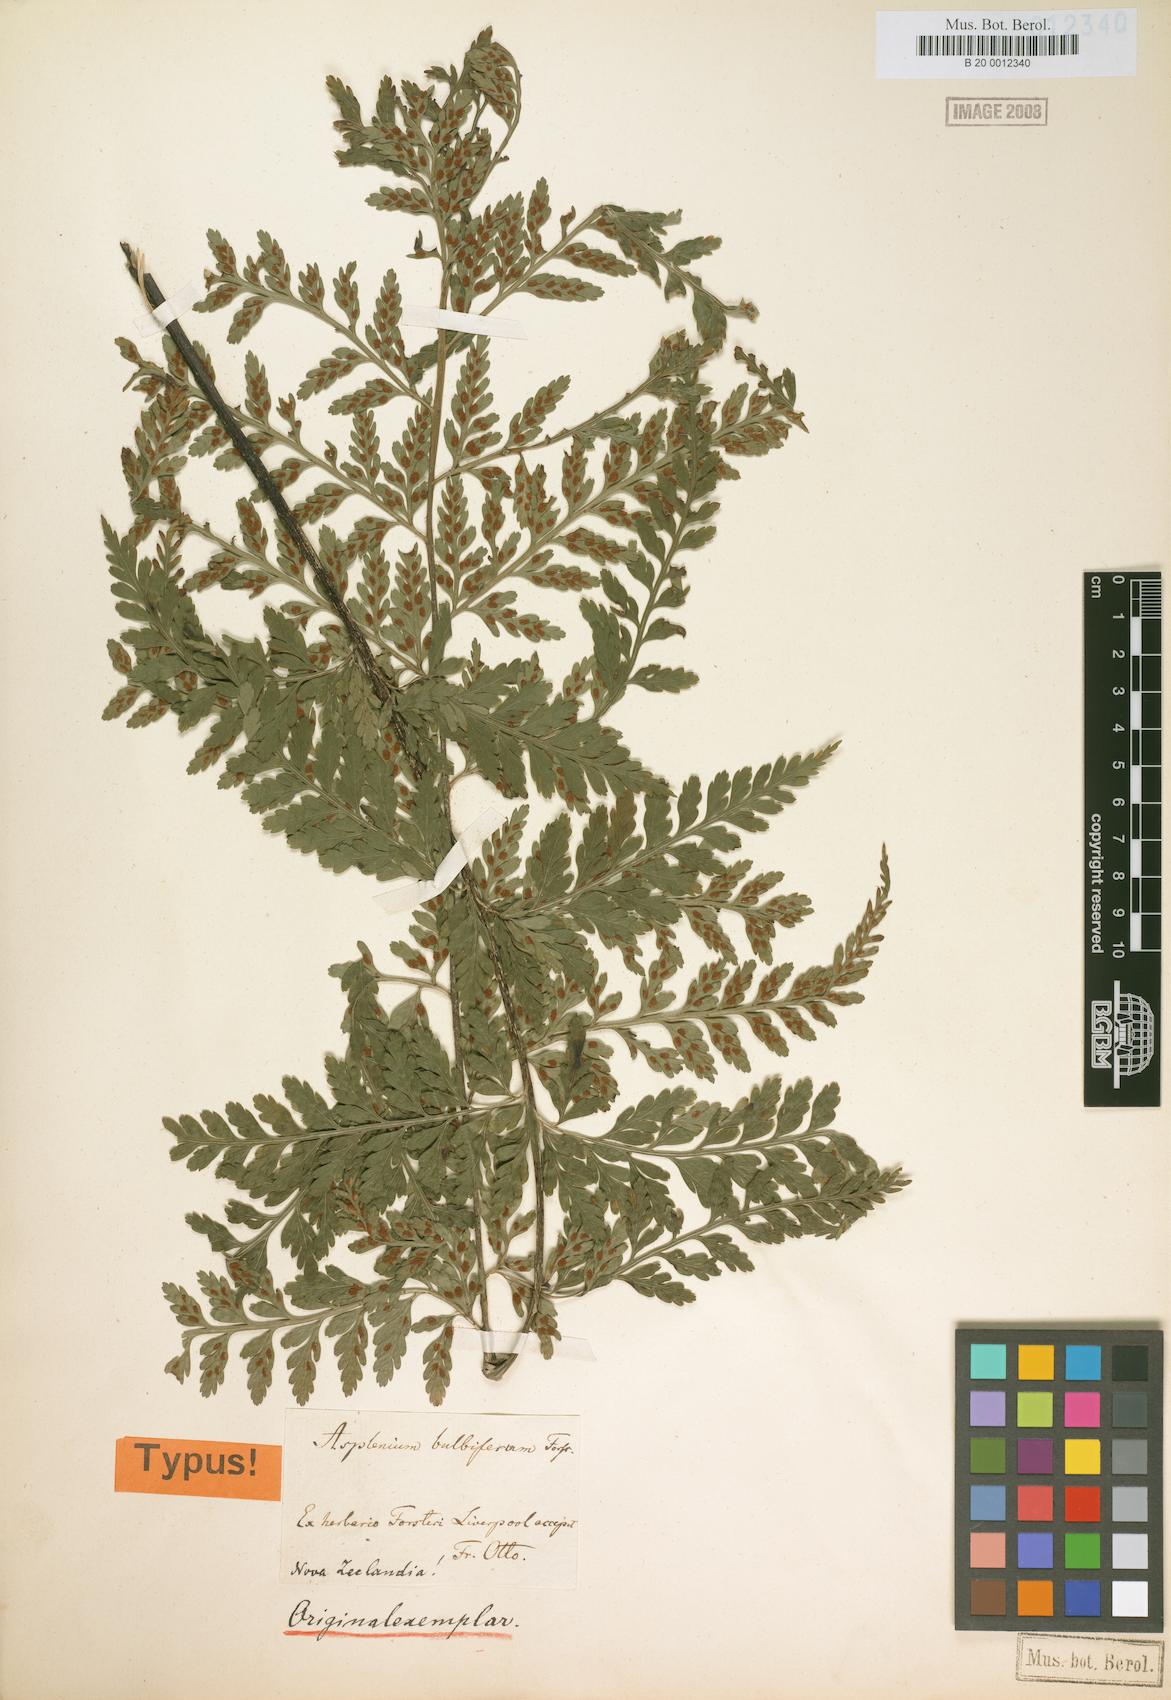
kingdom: Plantae
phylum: Tracheophyta
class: Polypodiopsida
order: Polypodiales
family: Aspleniaceae
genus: Asplenium
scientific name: Asplenium bulbiferum
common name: Mother fern
